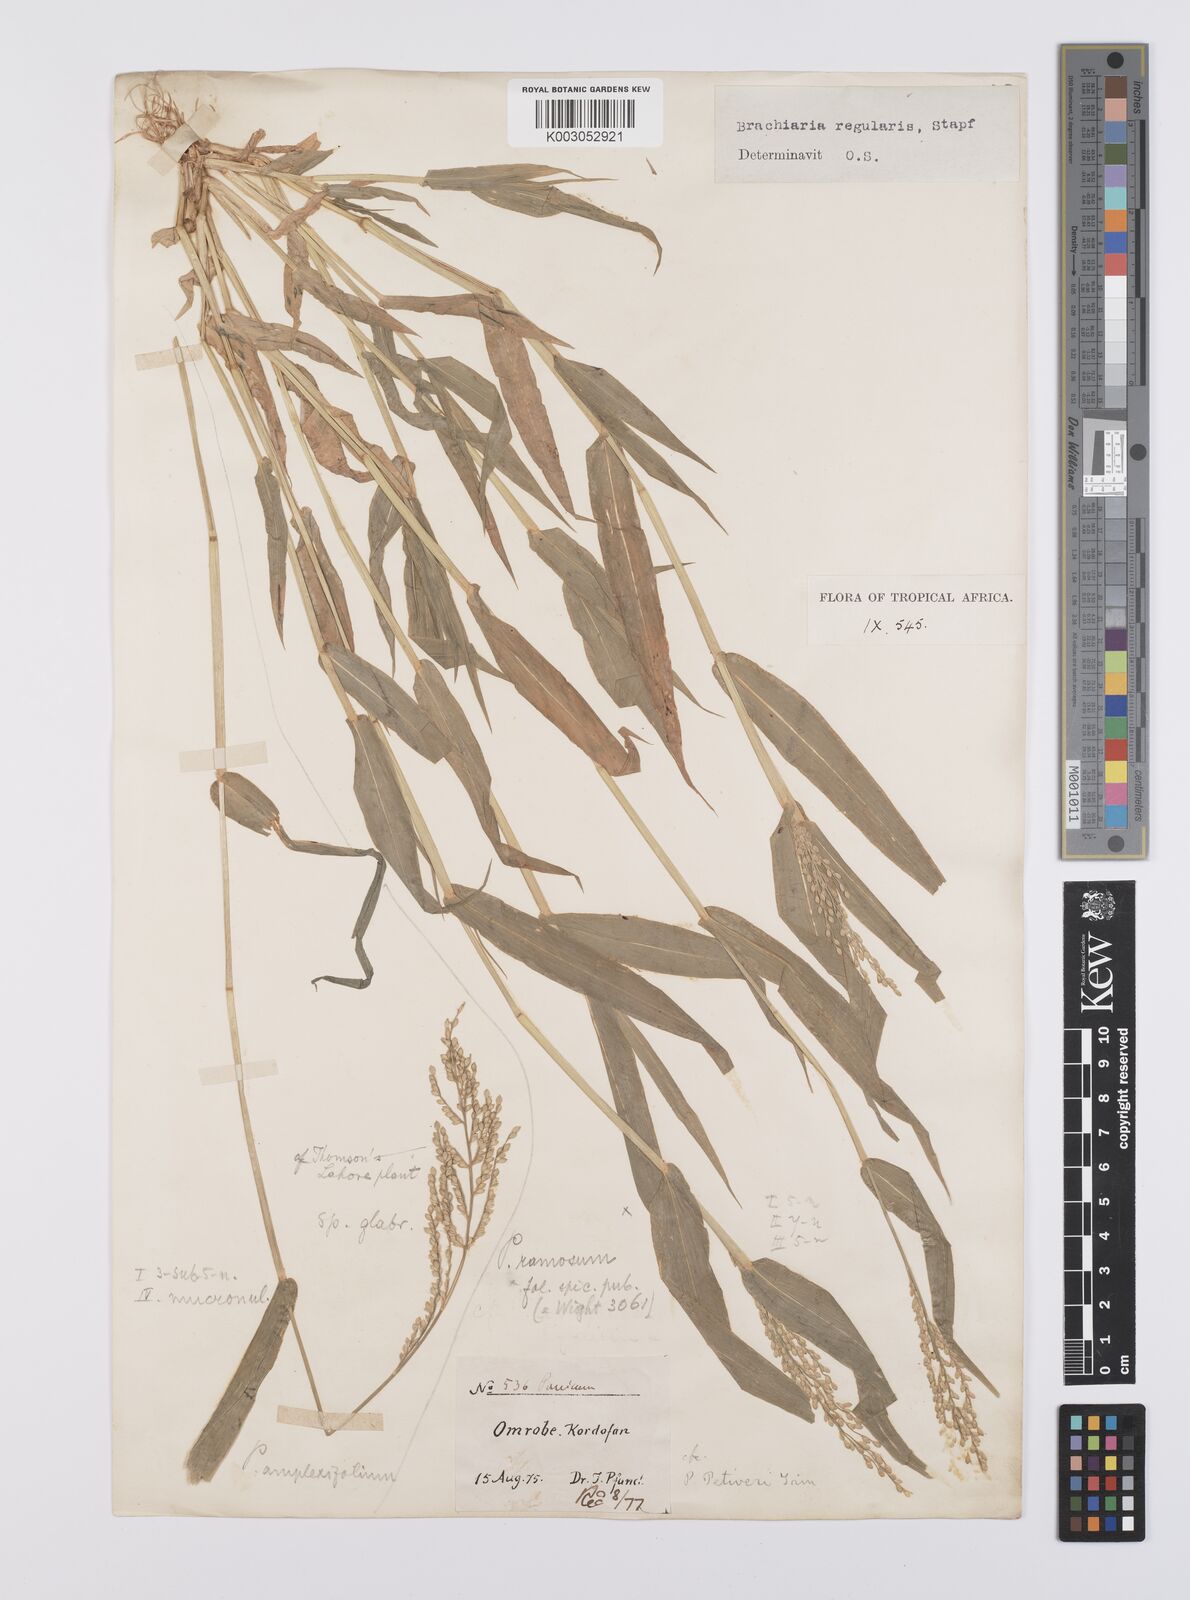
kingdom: Plantae
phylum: Tracheophyta
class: Liliopsida
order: Poales
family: Poaceae
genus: Urochloa
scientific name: Urochloa ramosa
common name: Browntop millet
